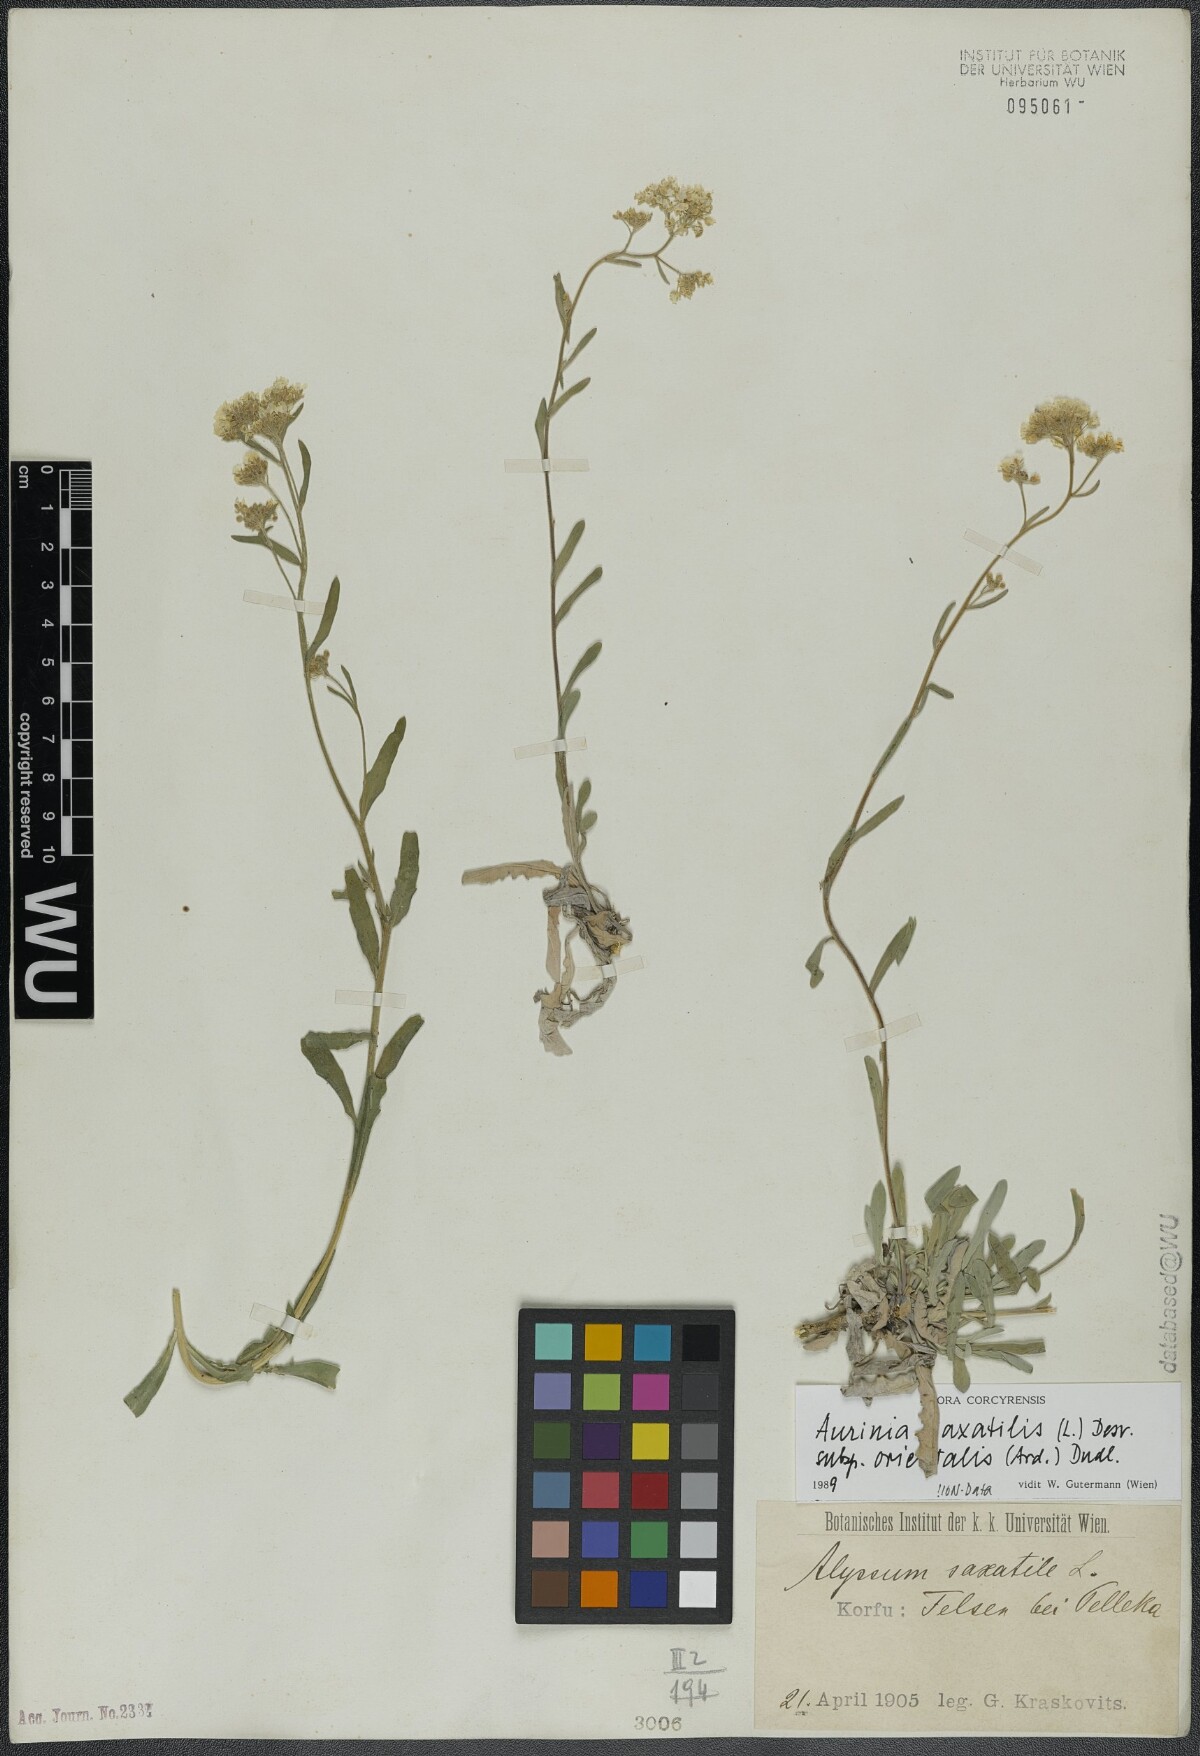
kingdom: Plantae
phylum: Tracheophyta
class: Magnoliopsida
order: Brassicales
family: Brassicaceae
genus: Aurinia
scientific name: Aurinia saxatilis
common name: Golden-tuft alyssum
